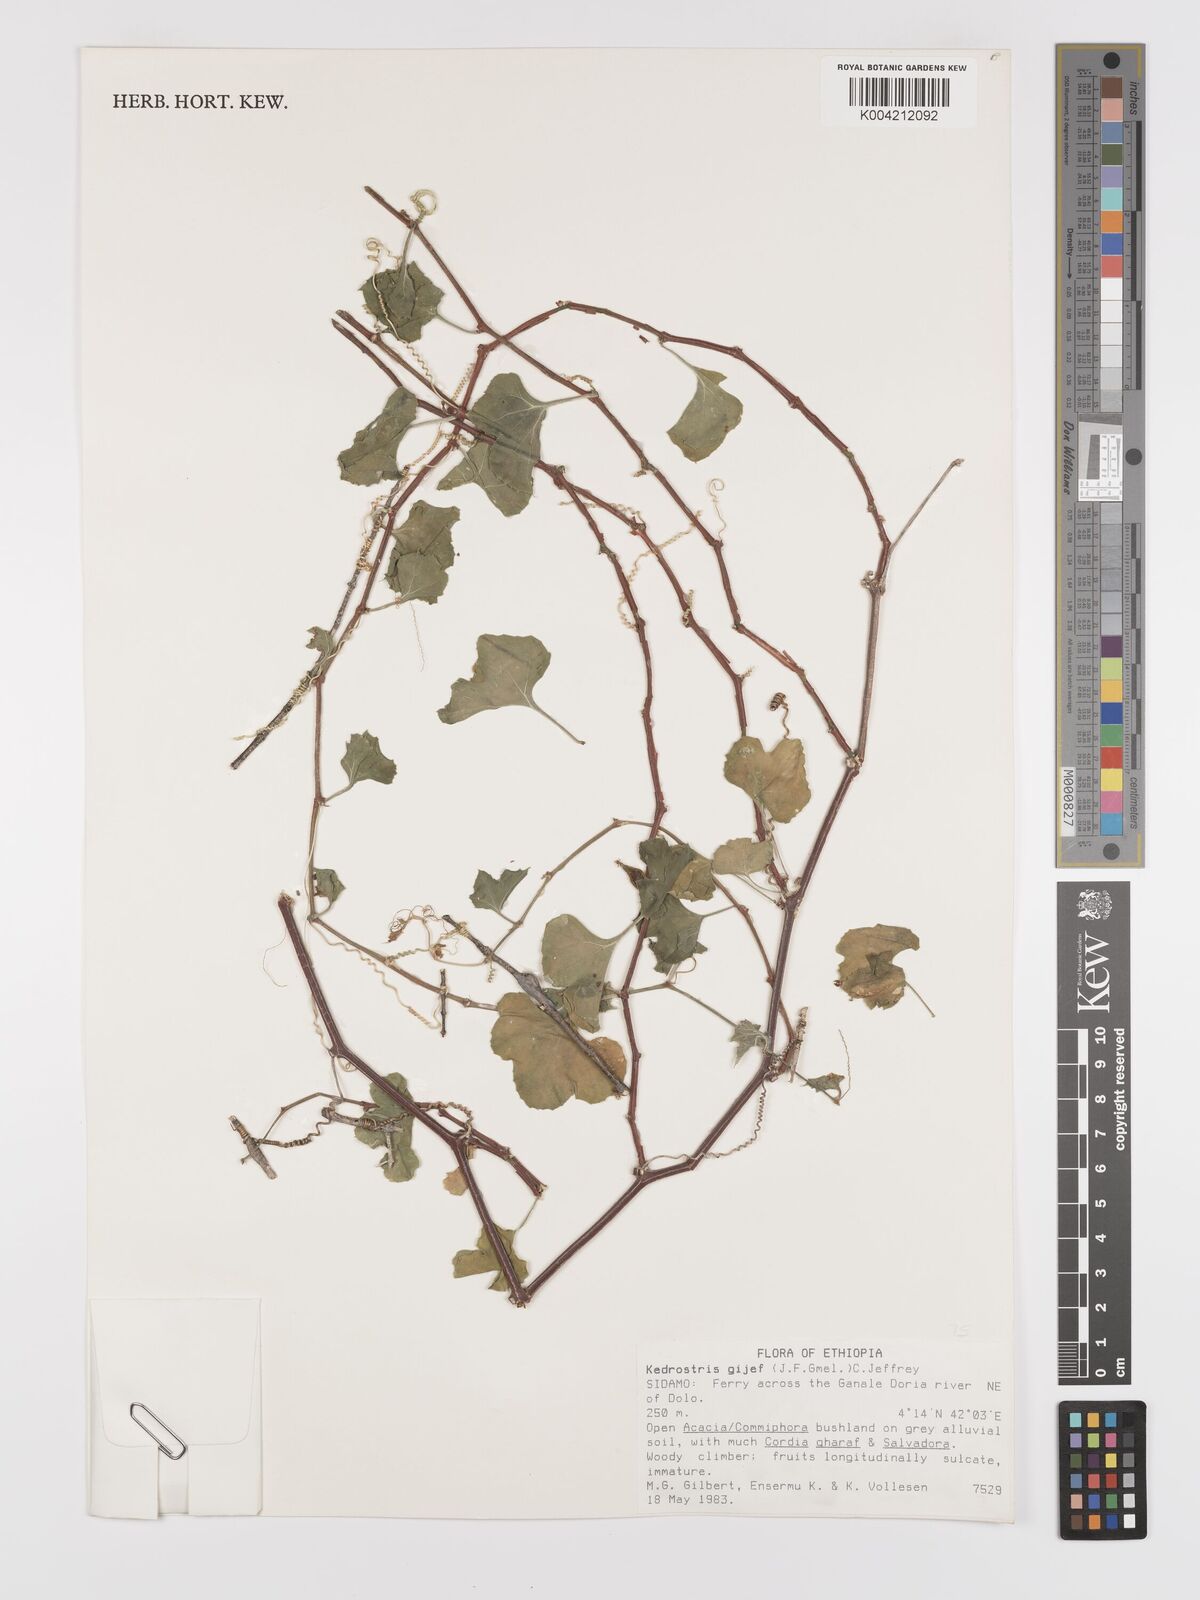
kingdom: Plantae
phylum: Tracheophyta
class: Magnoliopsida
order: Cucurbitales
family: Cucurbitaceae
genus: Kedrostis
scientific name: Kedrostis gijef
